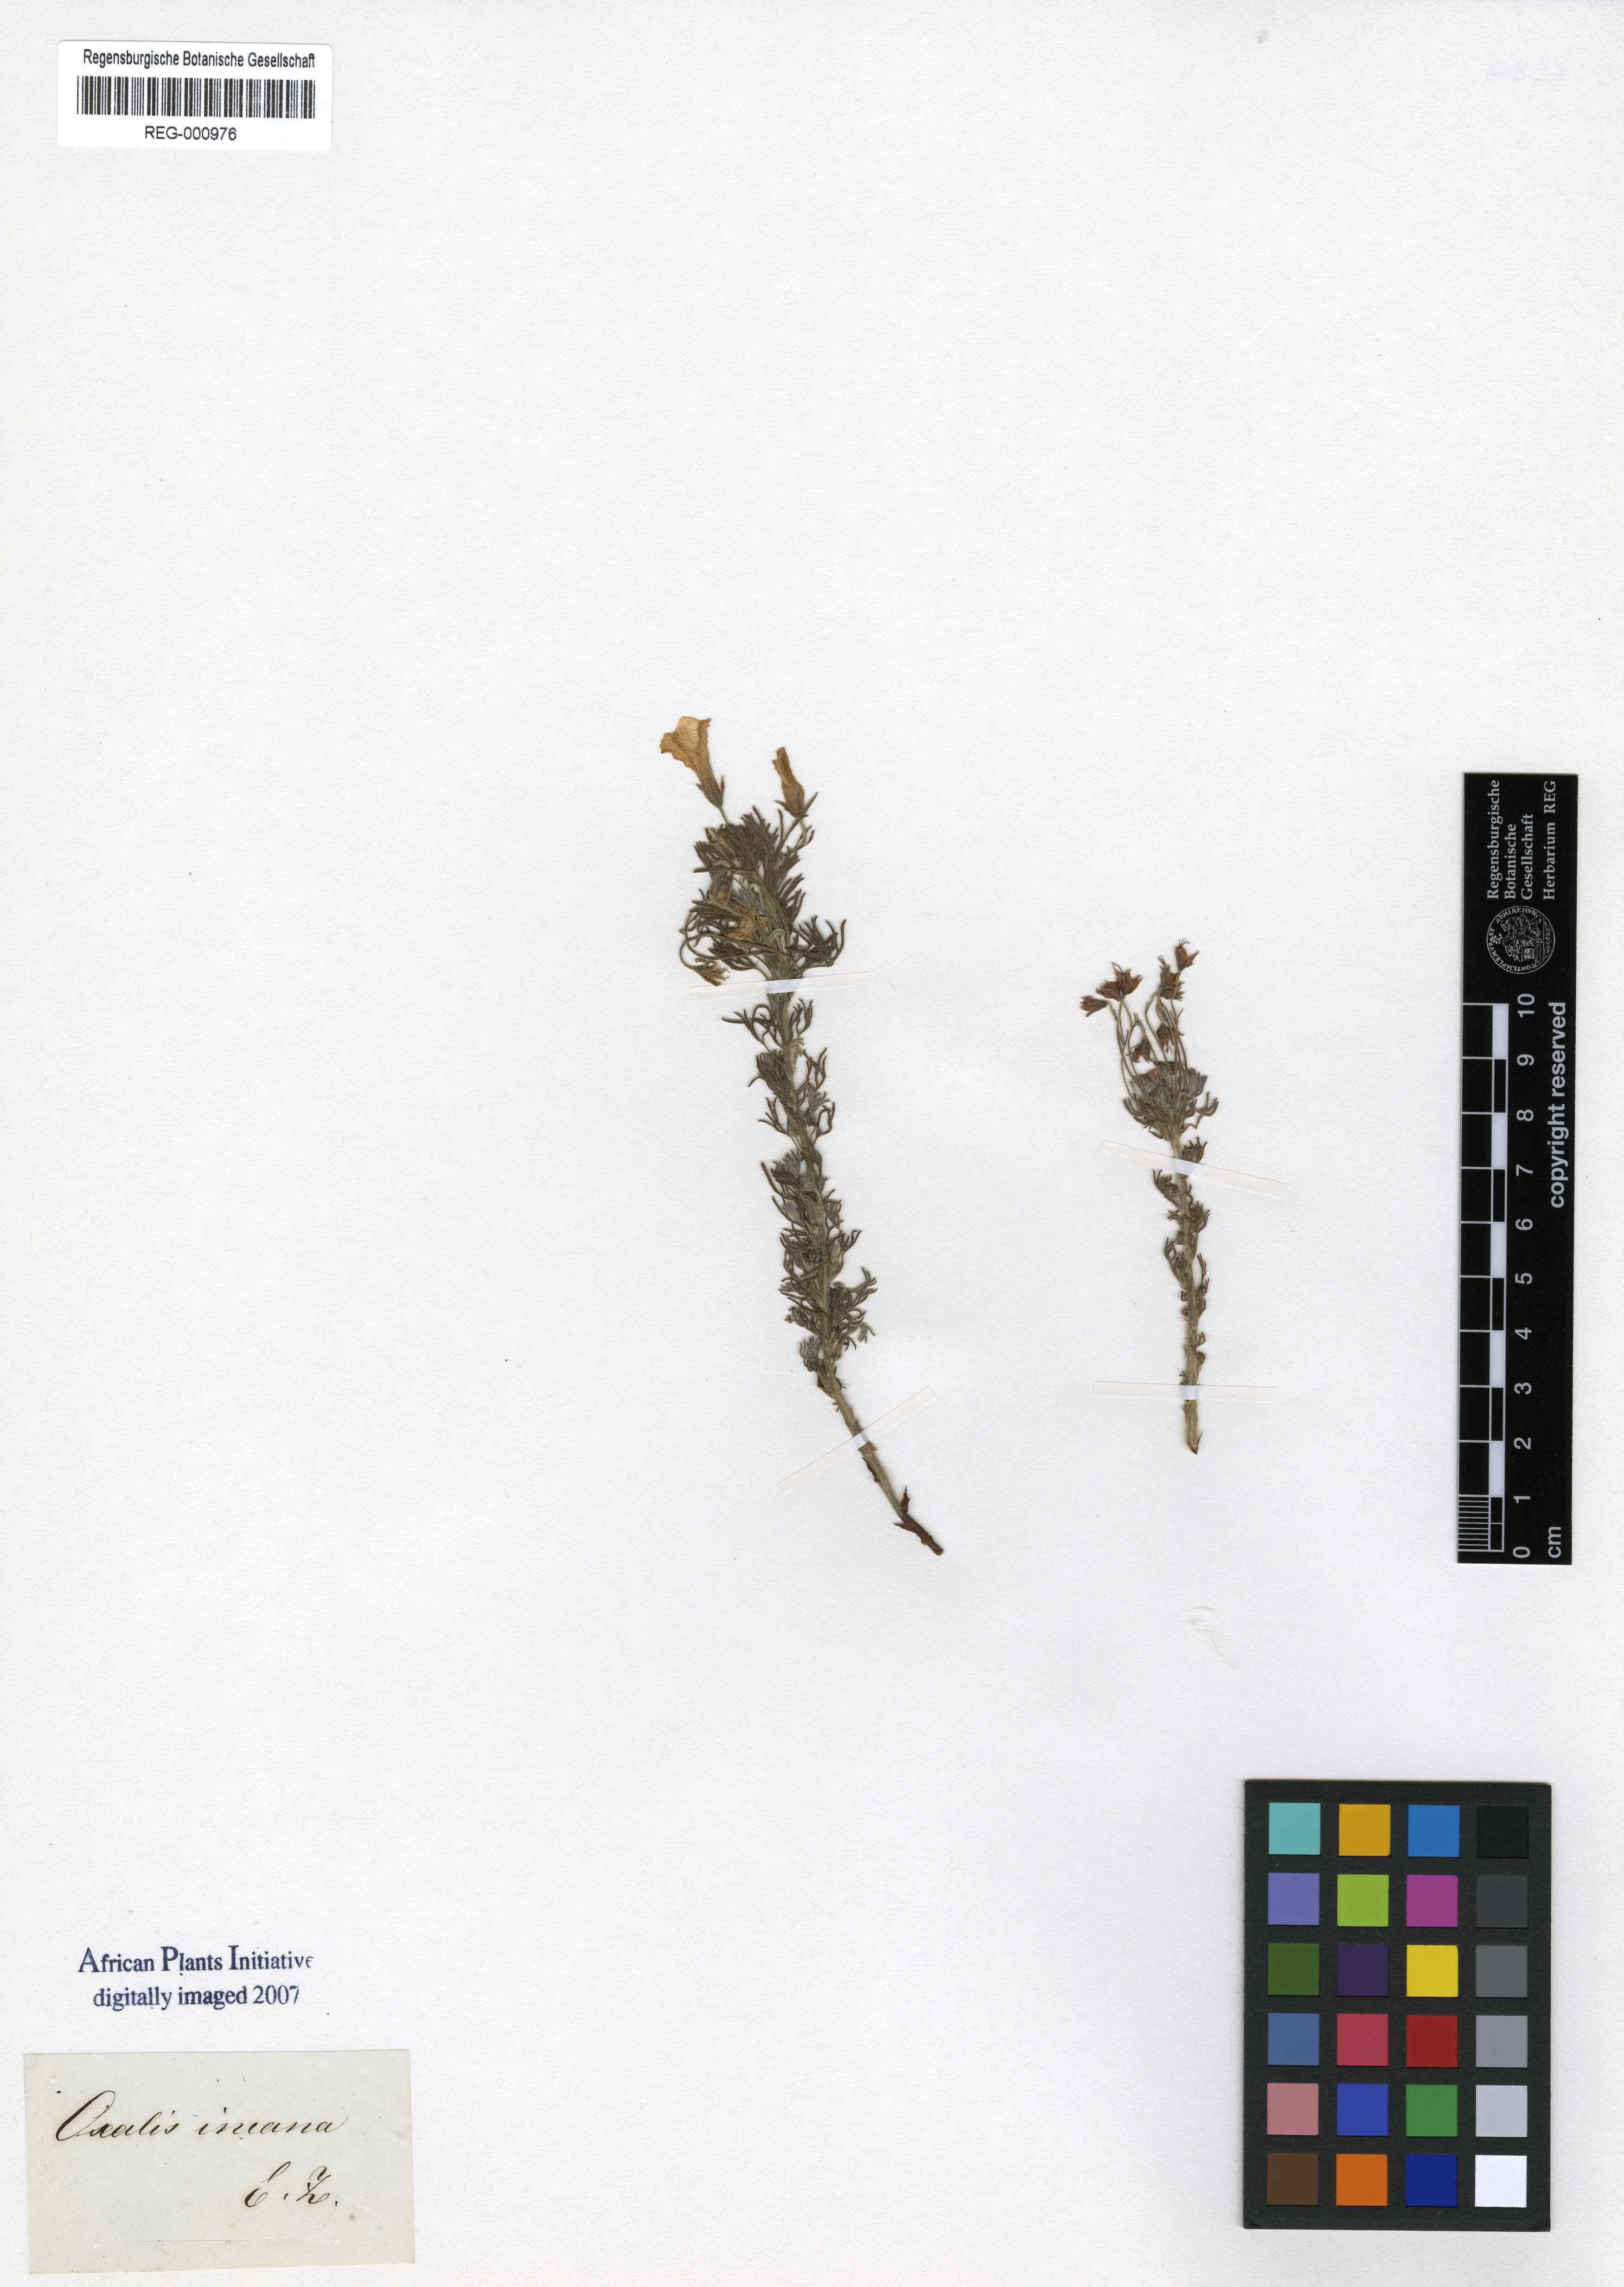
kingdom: Plantae
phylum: Tracheophyta
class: Magnoliopsida
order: Oxalidales
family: Oxalidaceae
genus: Oxalis
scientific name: Oxalis bifurca
